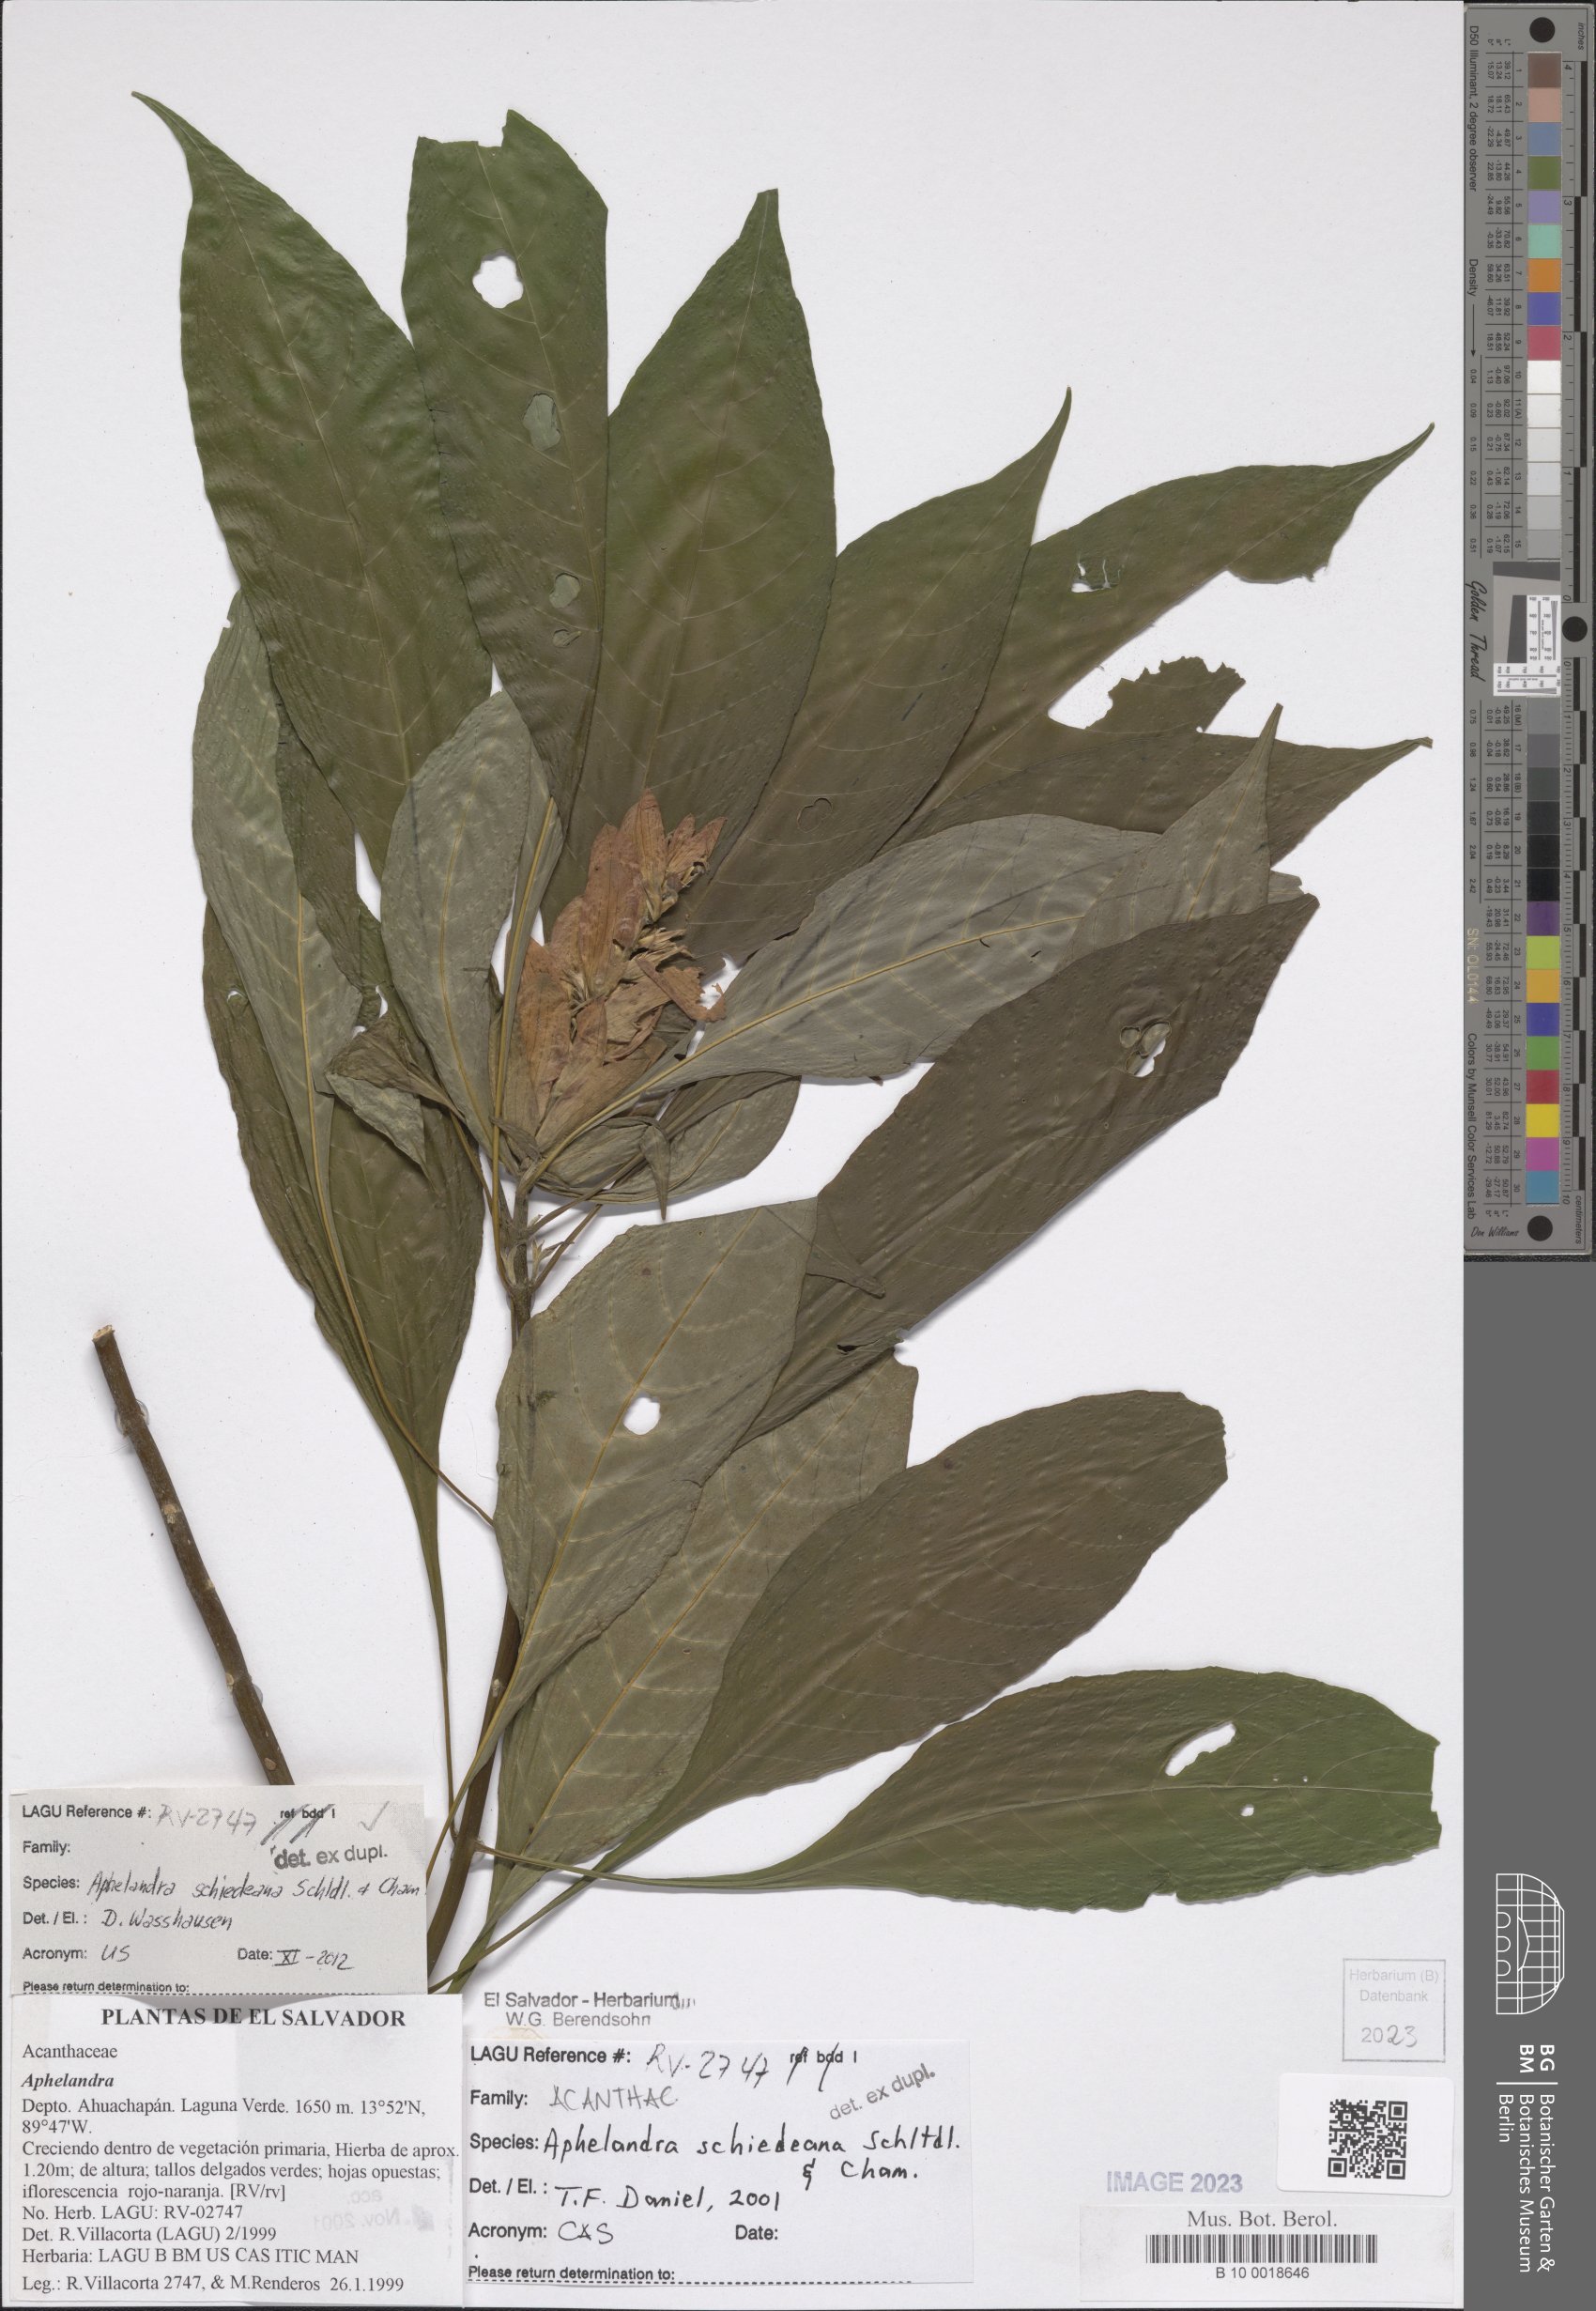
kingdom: Plantae
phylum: Tracheophyta
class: Magnoliopsida
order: Lamiales
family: Acanthaceae
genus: Aphelandra
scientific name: Aphelandra schiedeana
